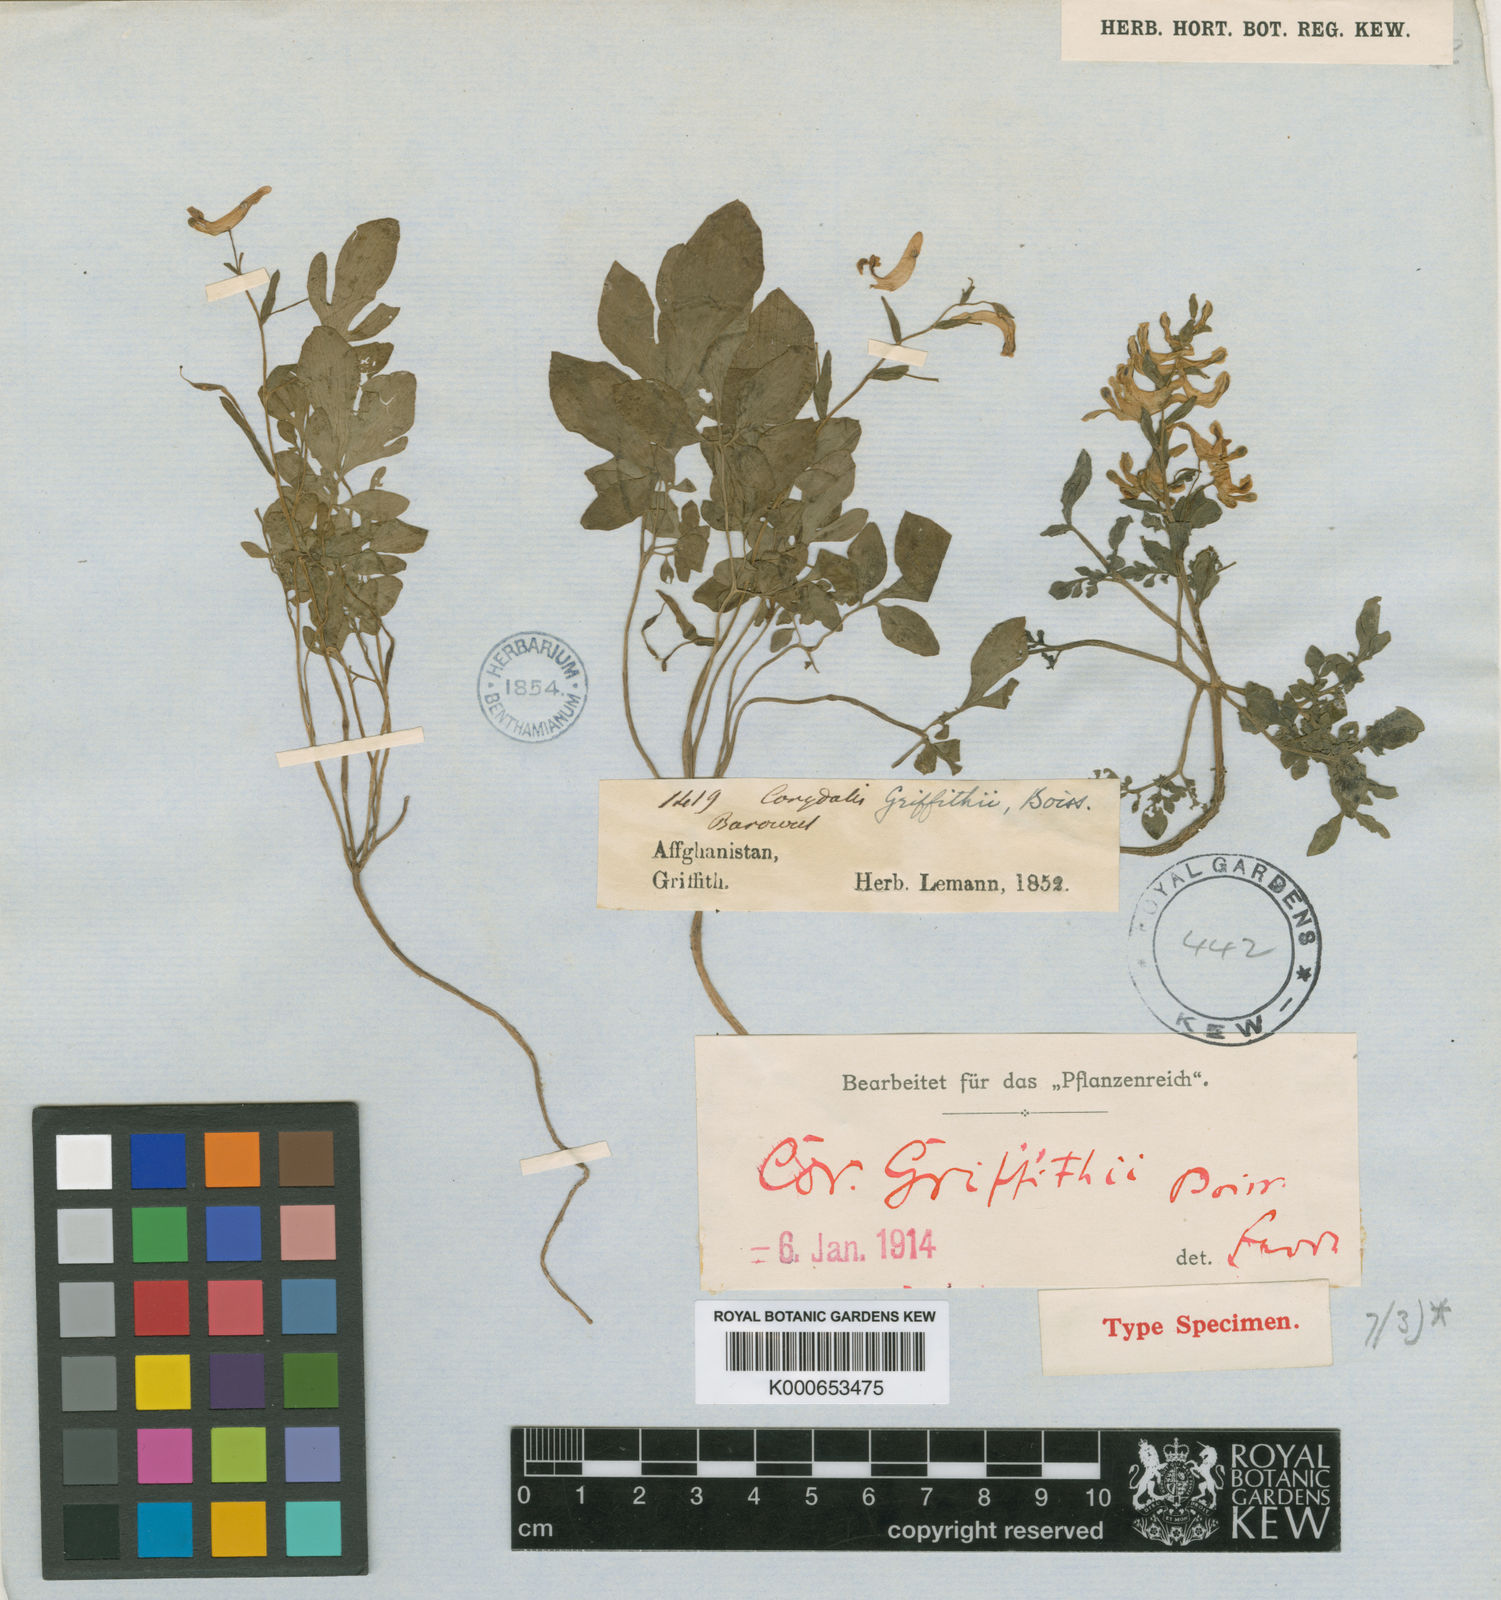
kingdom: Plantae
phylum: Tracheophyta
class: Magnoliopsida
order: Ranunculales
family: Papaveraceae
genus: Corydalis
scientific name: Corydalis griffithii
